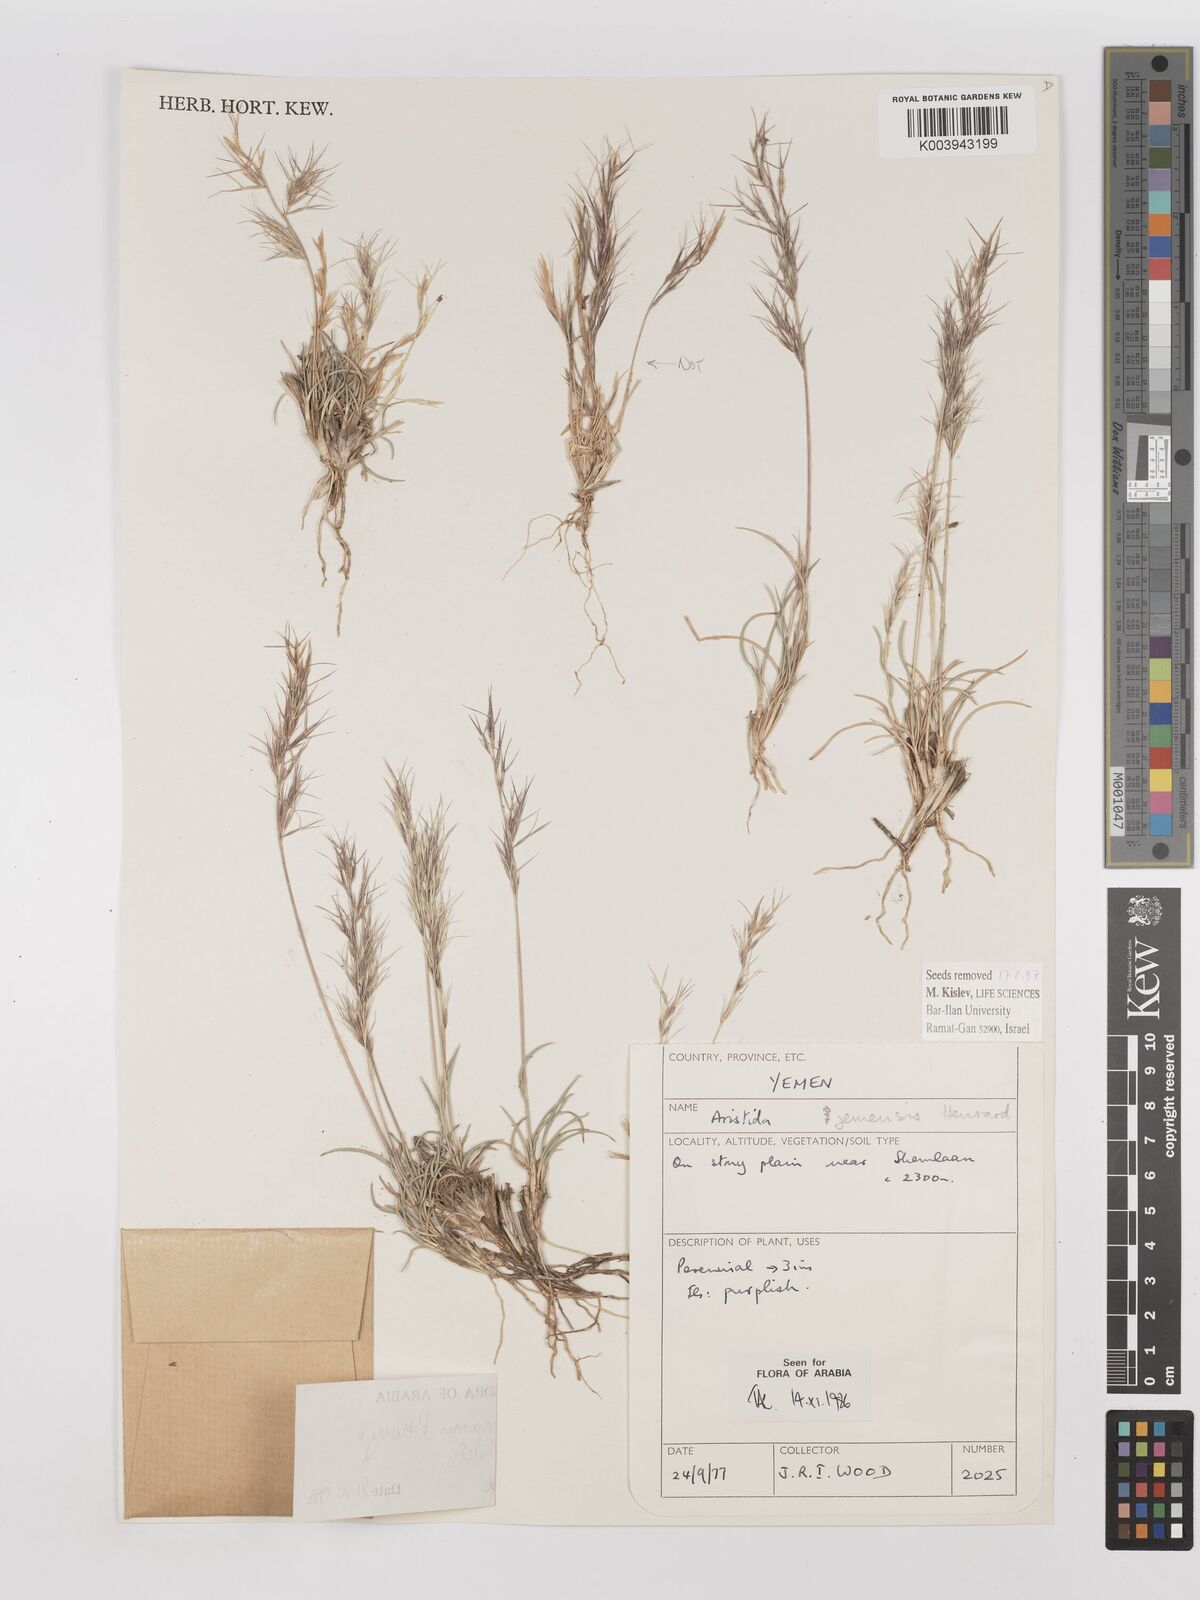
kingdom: Plantae
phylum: Tracheophyta
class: Liliopsida
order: Poales
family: Poaceae
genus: Aristida
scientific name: Aristida tricornis
